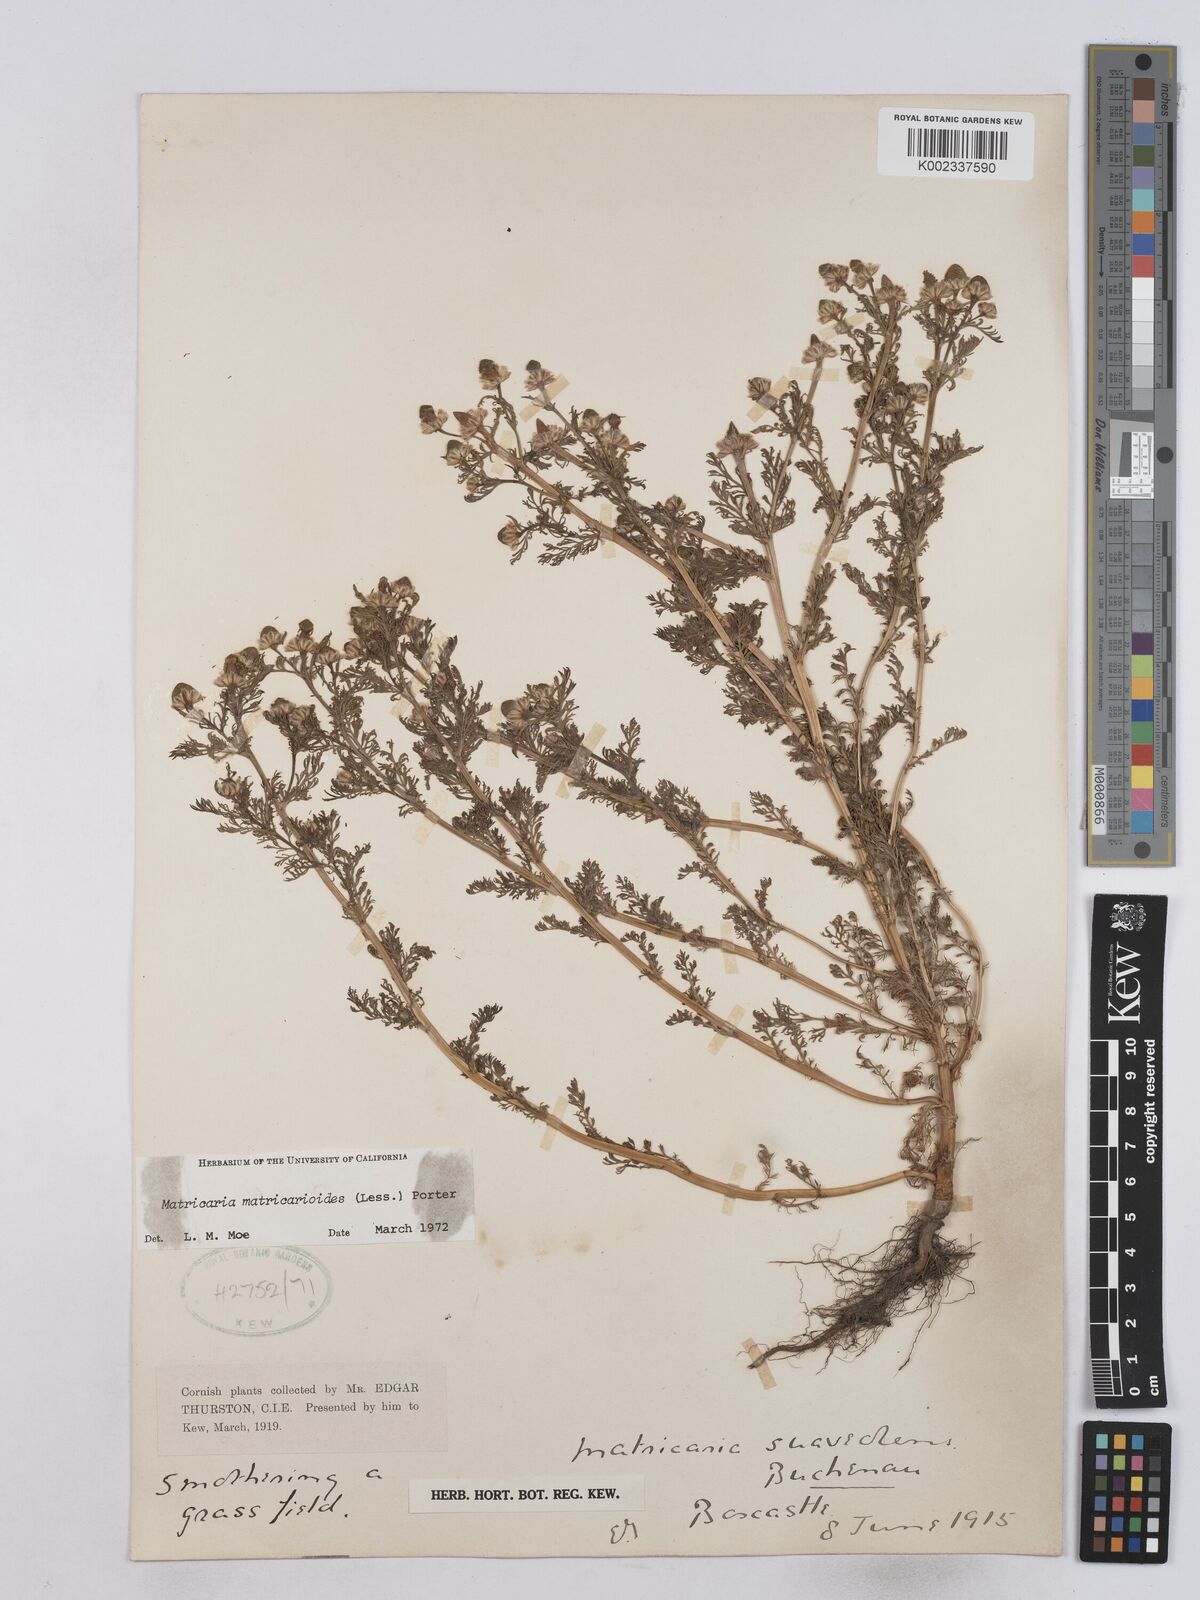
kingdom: Plantae
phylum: Tracheophyta
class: Magnoliopsida
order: Asterales
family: Asteraceae
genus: Matricaria
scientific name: Matricaria discoidea
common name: Disc mayweed
